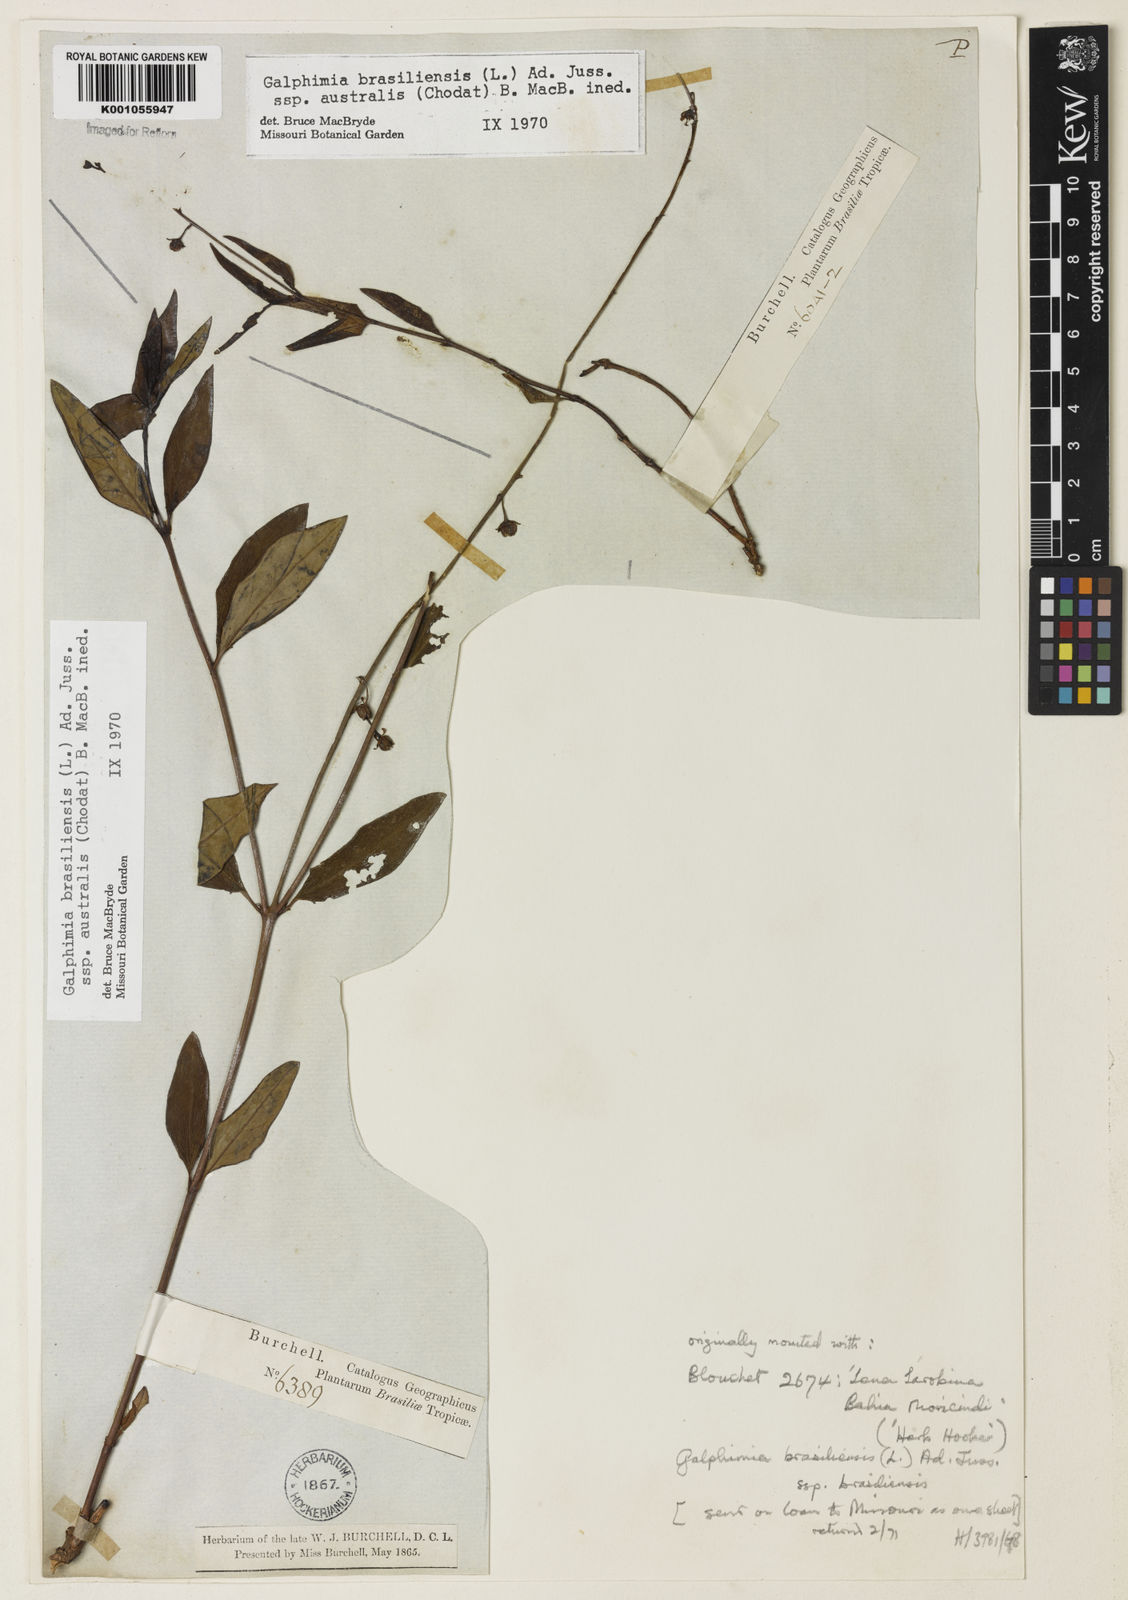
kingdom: Plantae
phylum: Tracheophyta
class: Magnoliopsida
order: Malpighiales
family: Malpighiaceae
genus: Galphimia
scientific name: Galphimia brasiliensis
